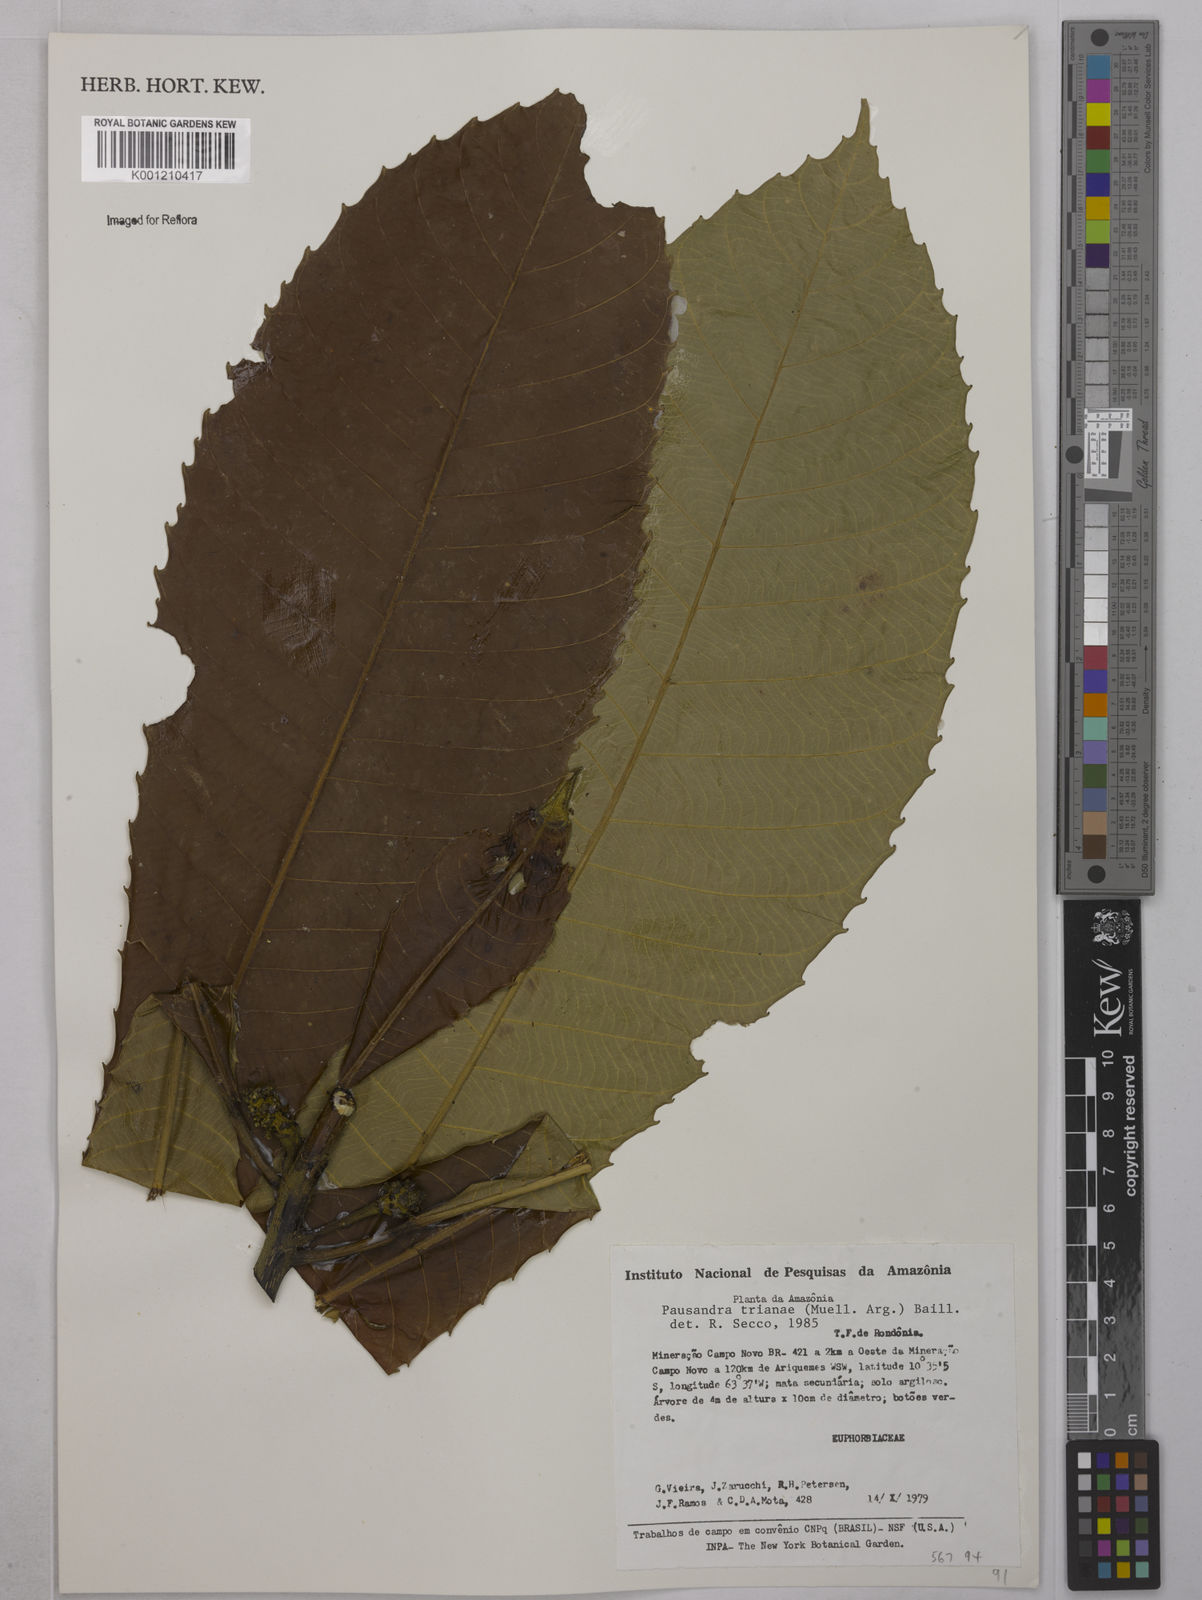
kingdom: Plantae
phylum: Tracheophyta
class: Magnoliopsida
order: Malpighiales
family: Euphorbiaceae
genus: Pausandra
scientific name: Pausandra
